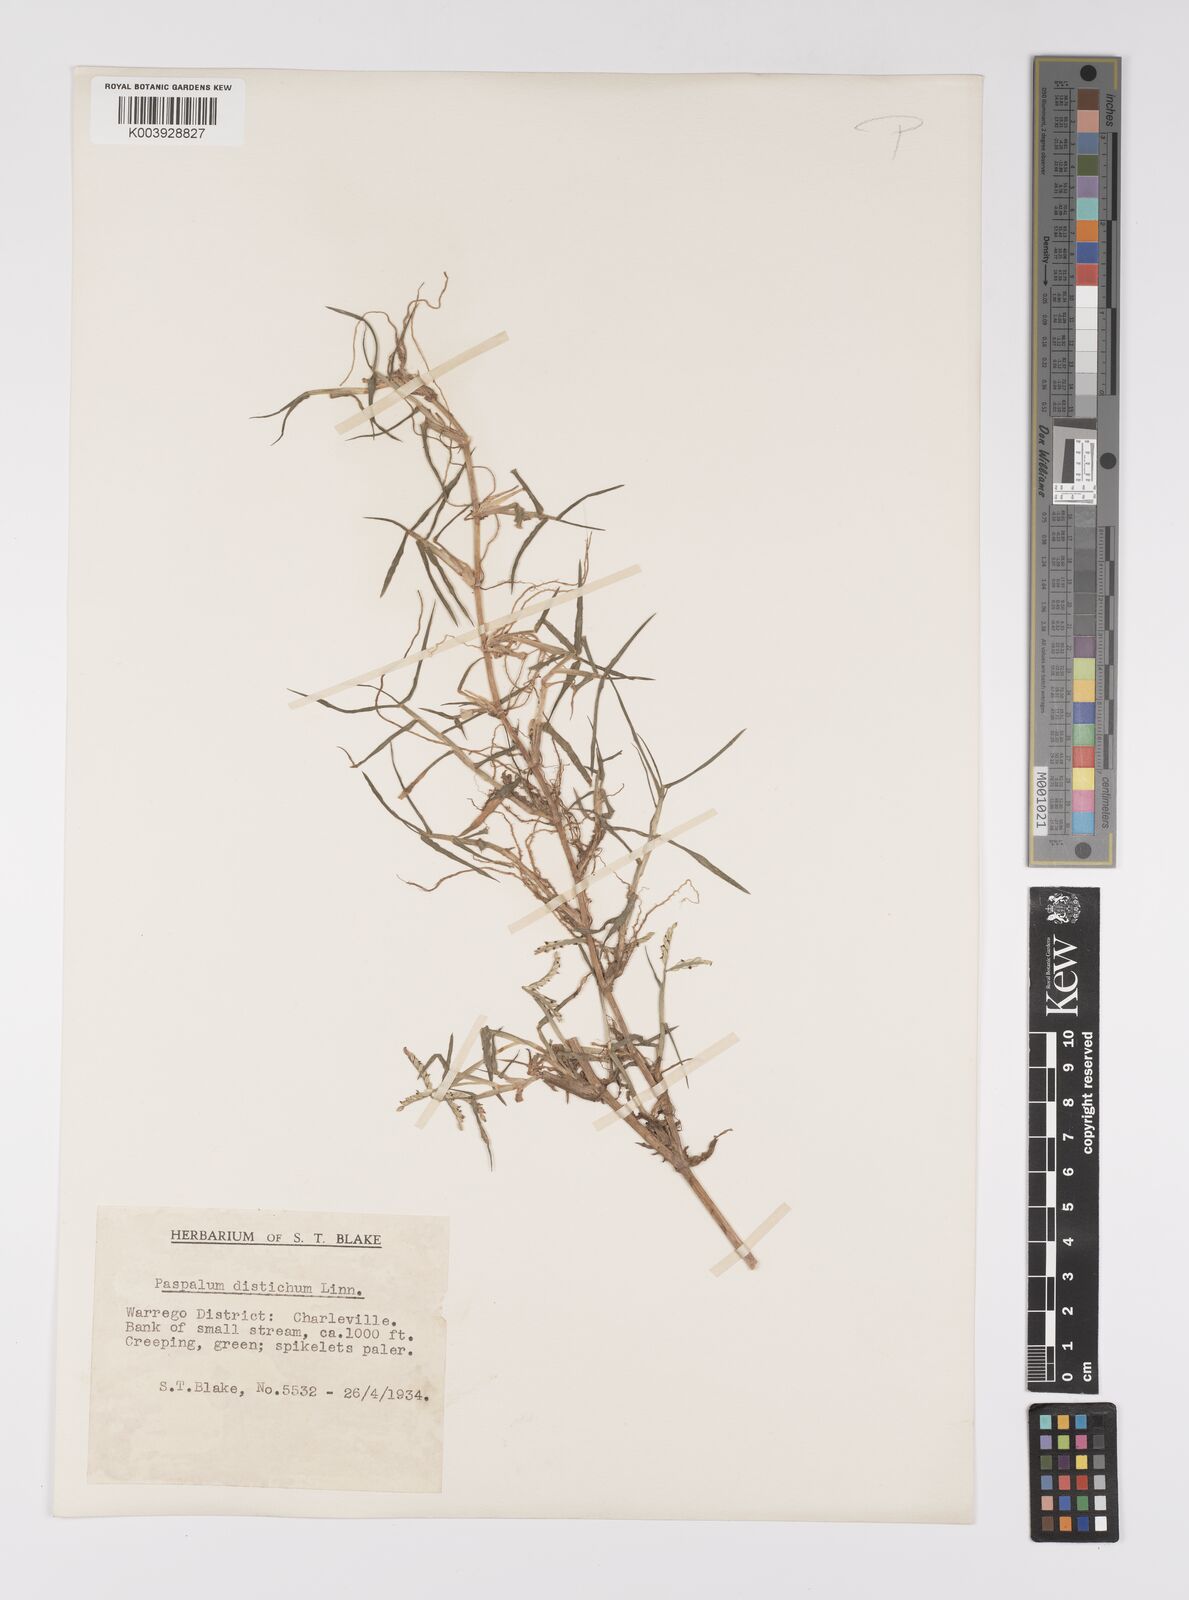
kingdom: Plantae
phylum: Tracheophyta
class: Liliopsida
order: Poales
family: Poaceae
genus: Paspalum
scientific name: Paspalum distichum
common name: Knotgrass
